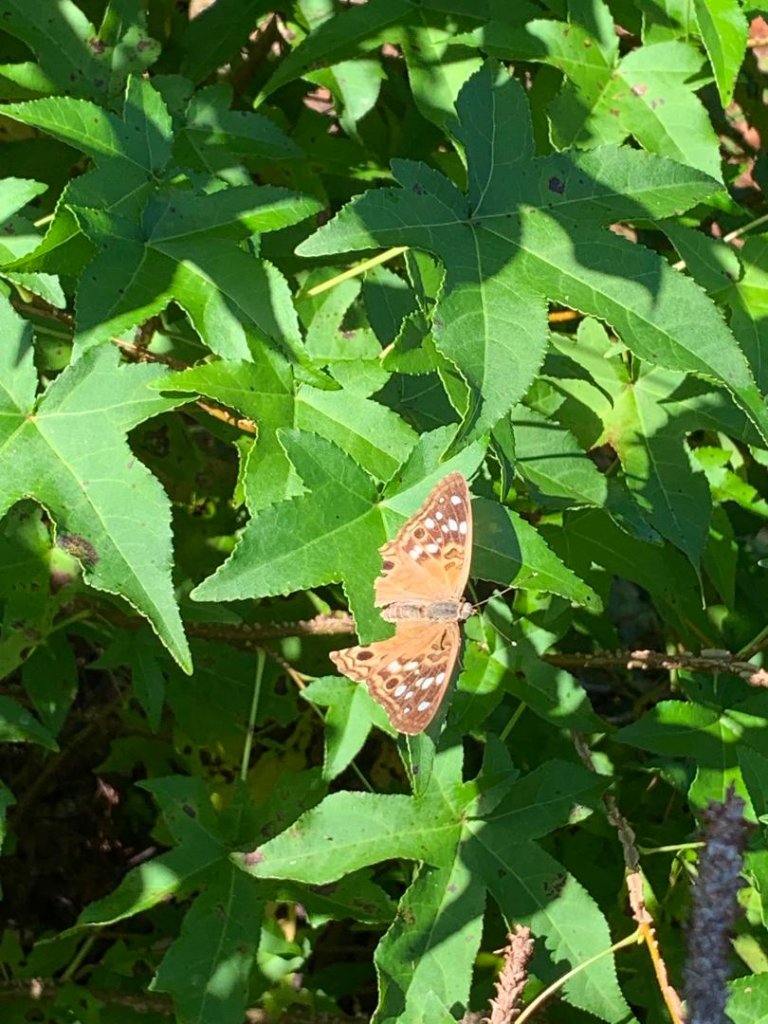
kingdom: Animalia
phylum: Arthropoda
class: Insecta
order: Lepidoptera
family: Nymphalidae
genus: Asterocampa
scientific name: Asterocampa celtis
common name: Hackberry Emperor
